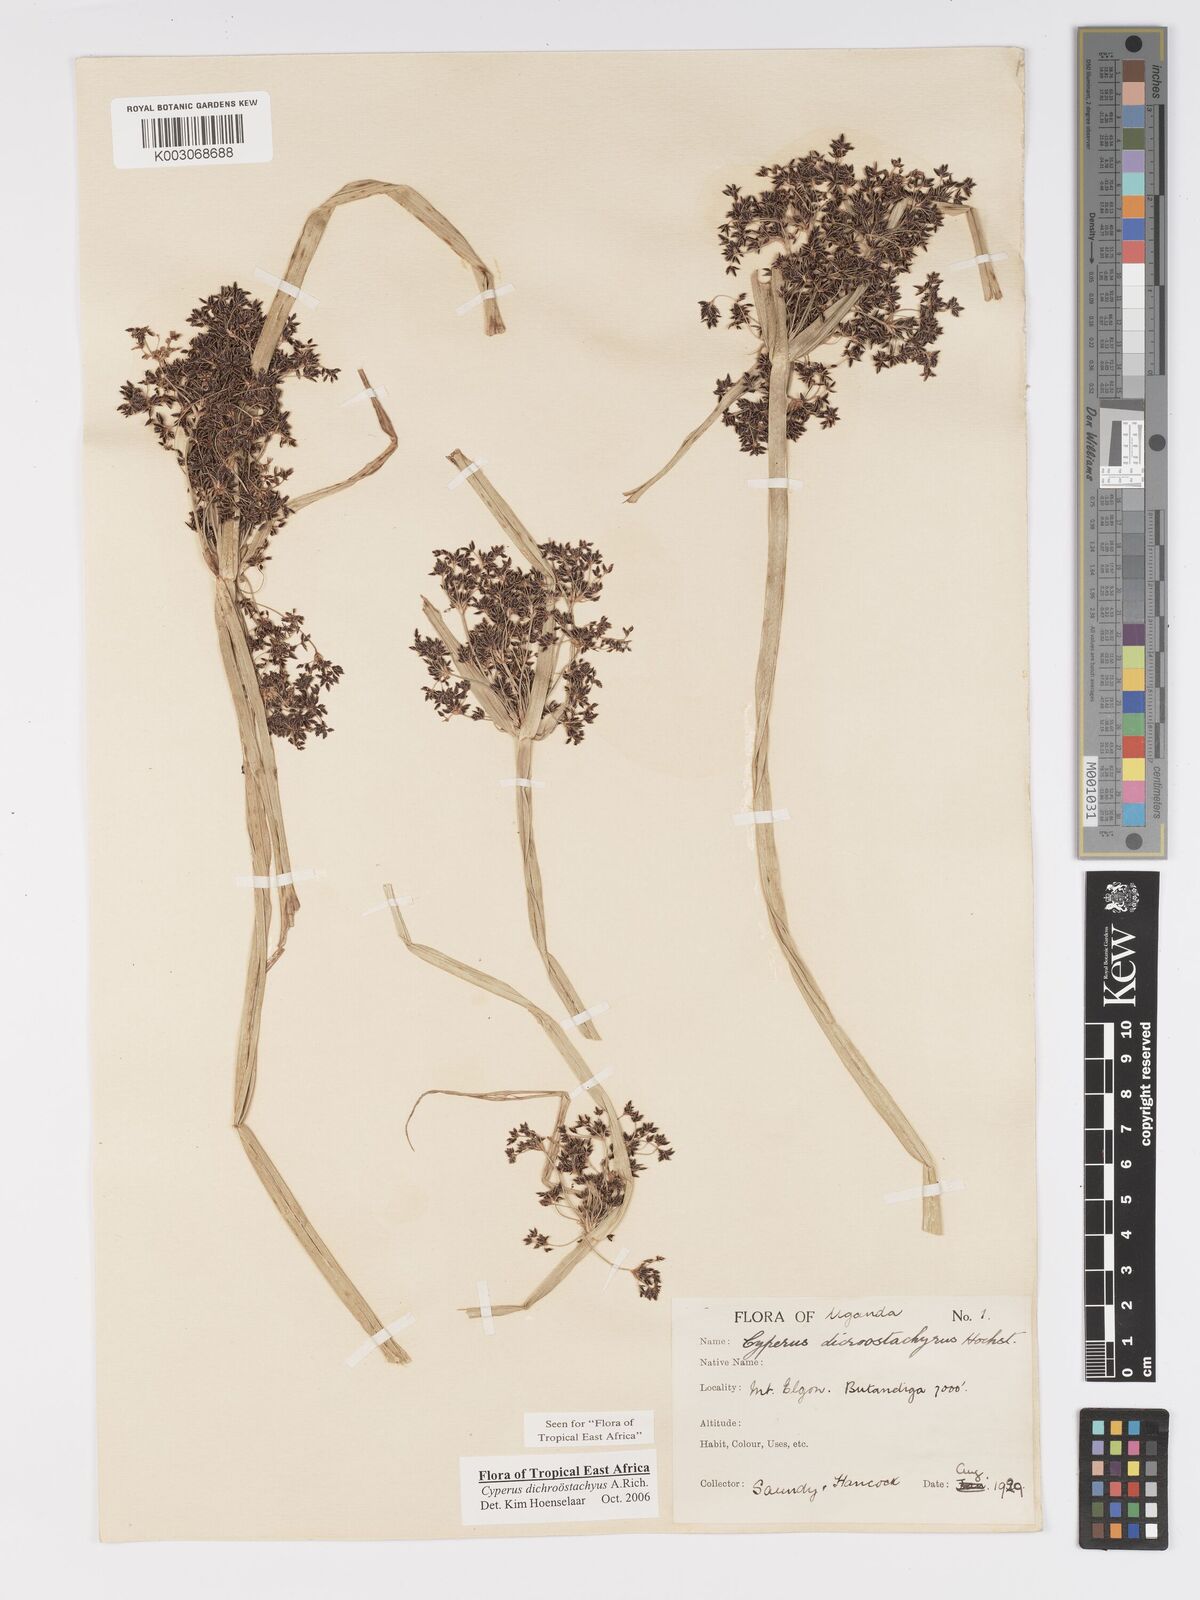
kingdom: Plantae
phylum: Tracheophyta
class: Liliopsida
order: Poales
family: Cyperaceae
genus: Cyperus
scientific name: Cyperus dichrostachyus
